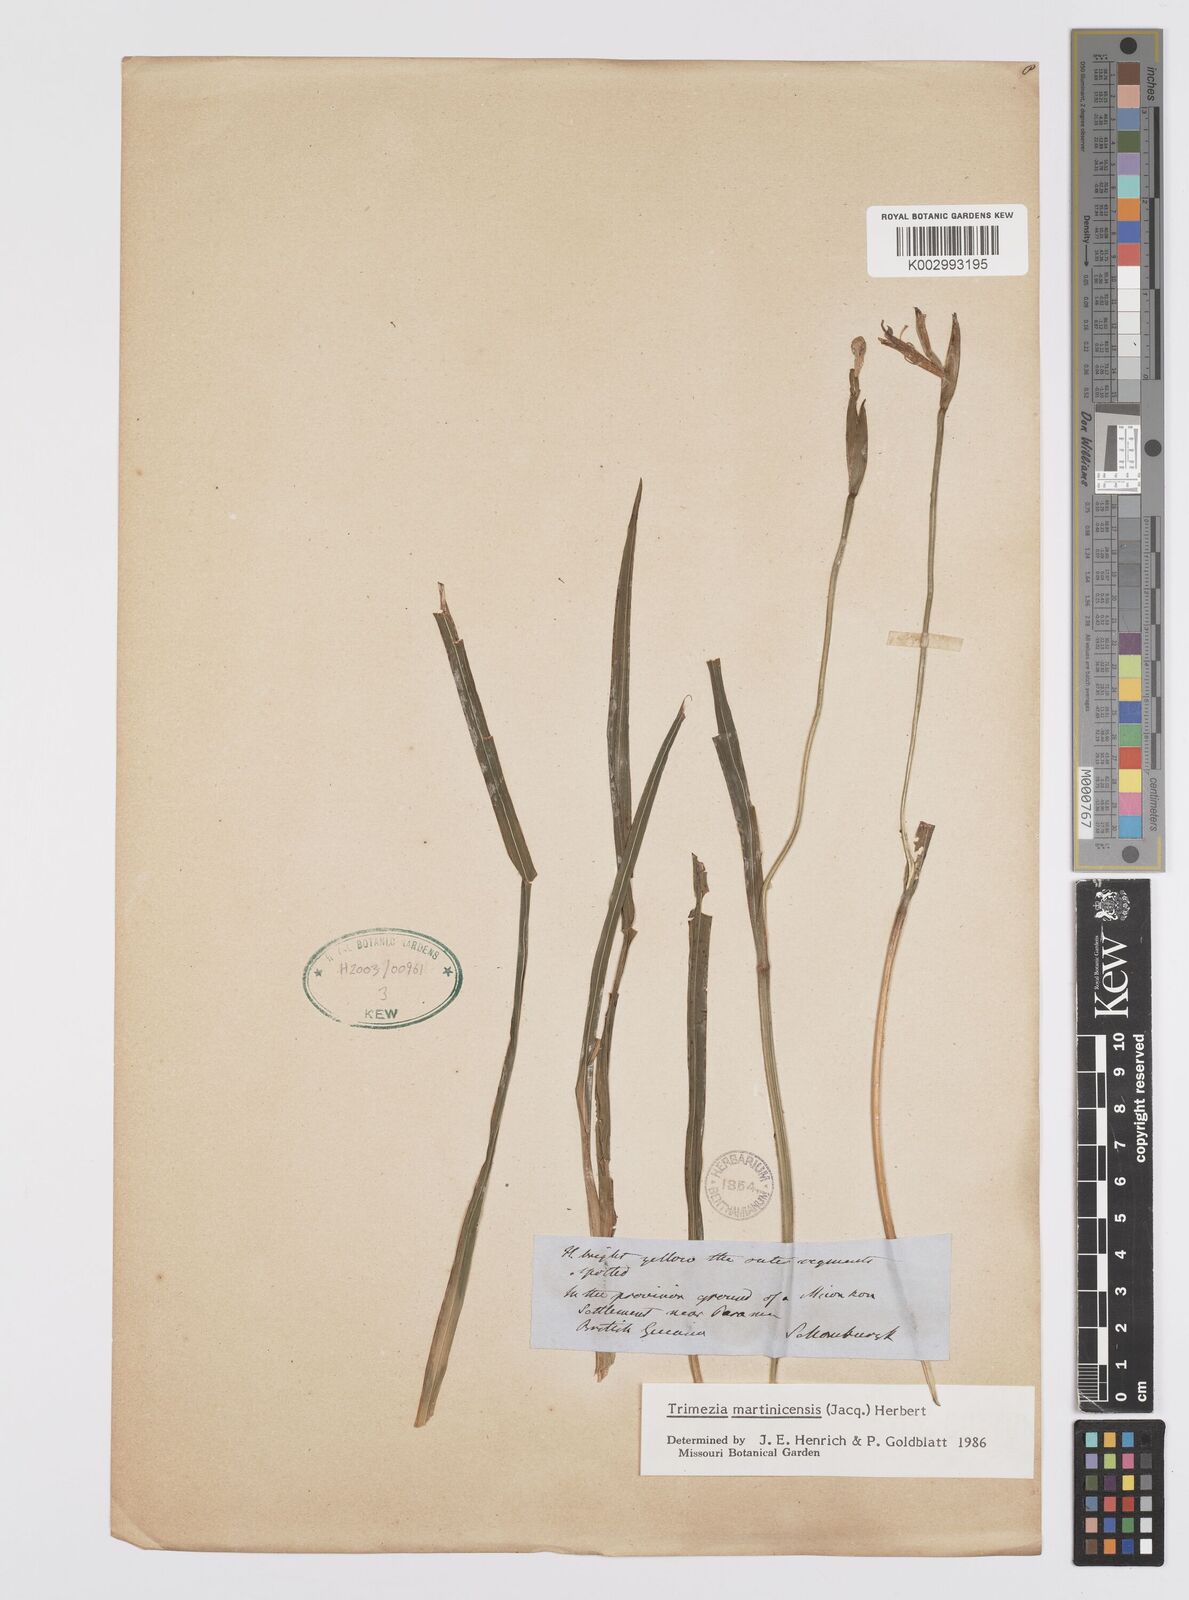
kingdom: Plantae
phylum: Tracheophyta
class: Liliopsida
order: Asparagales
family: Iridaceae
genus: Trimezia
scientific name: Trimezia martinicensis
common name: Martinique trimezia
